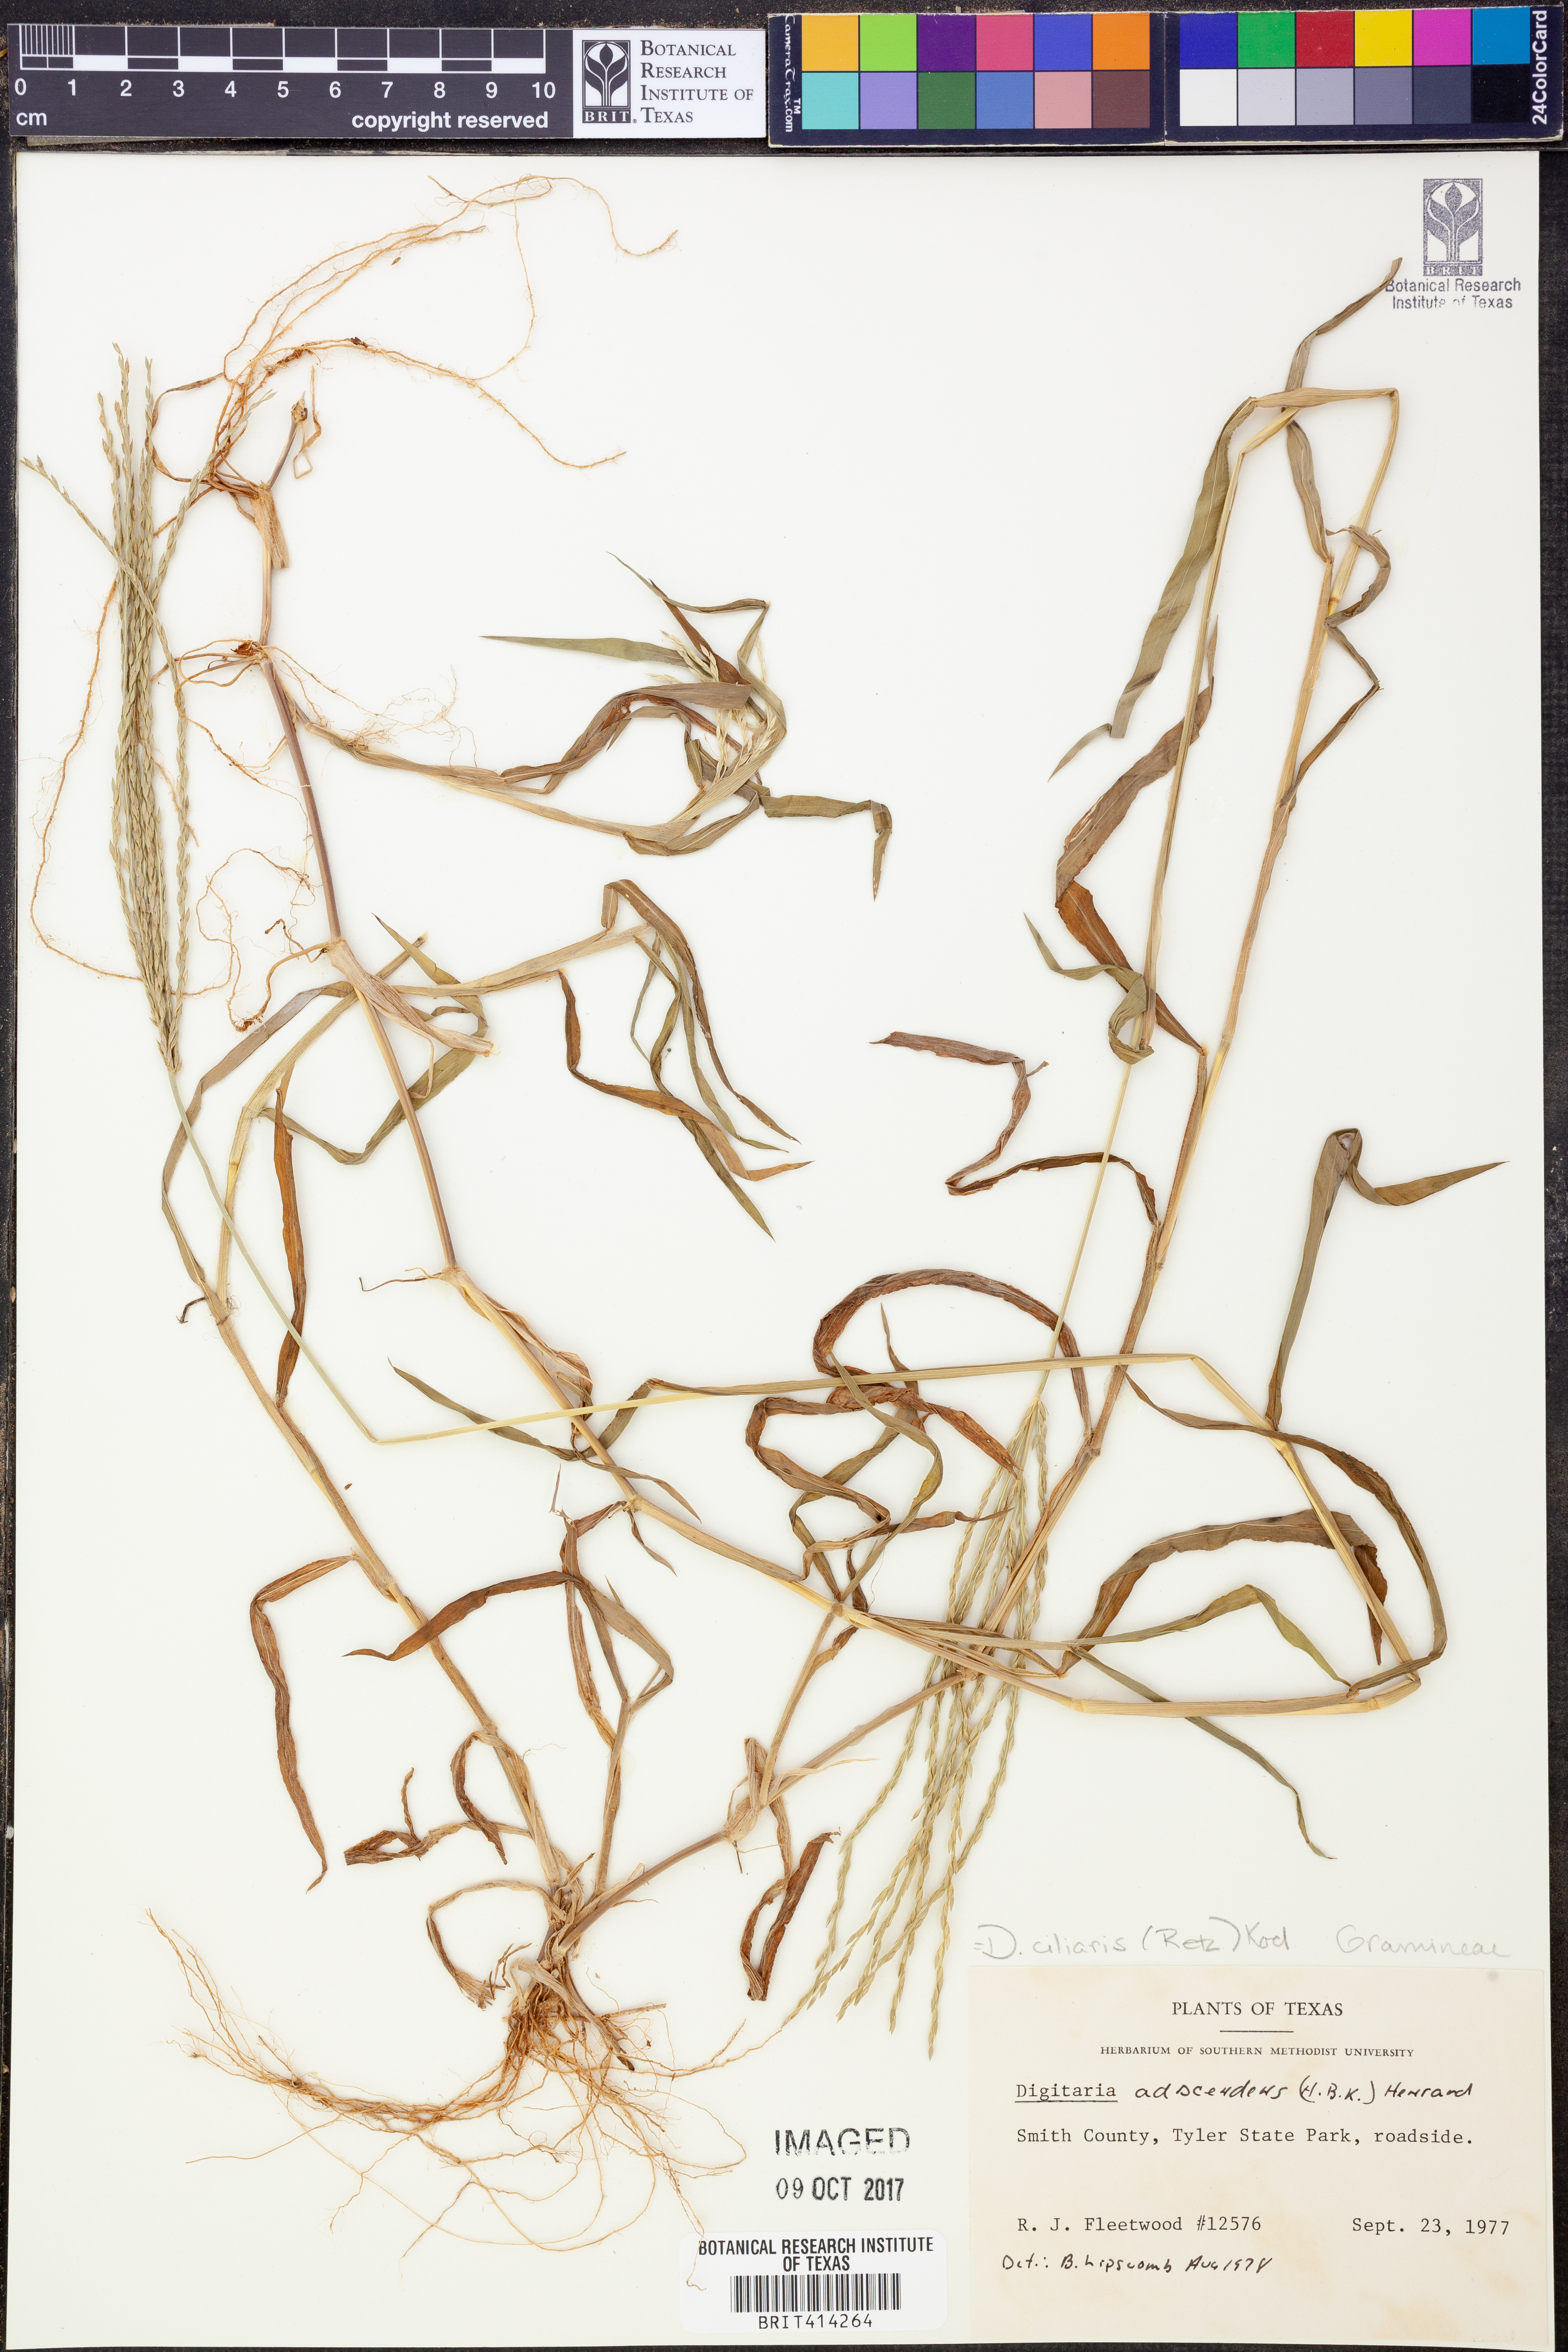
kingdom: Plantae
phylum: Tracheophyta
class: Liliopsida
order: Poales
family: Poaceae
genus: Digitaria
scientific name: Digitaria ciliaris
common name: Tropical finger-grass
